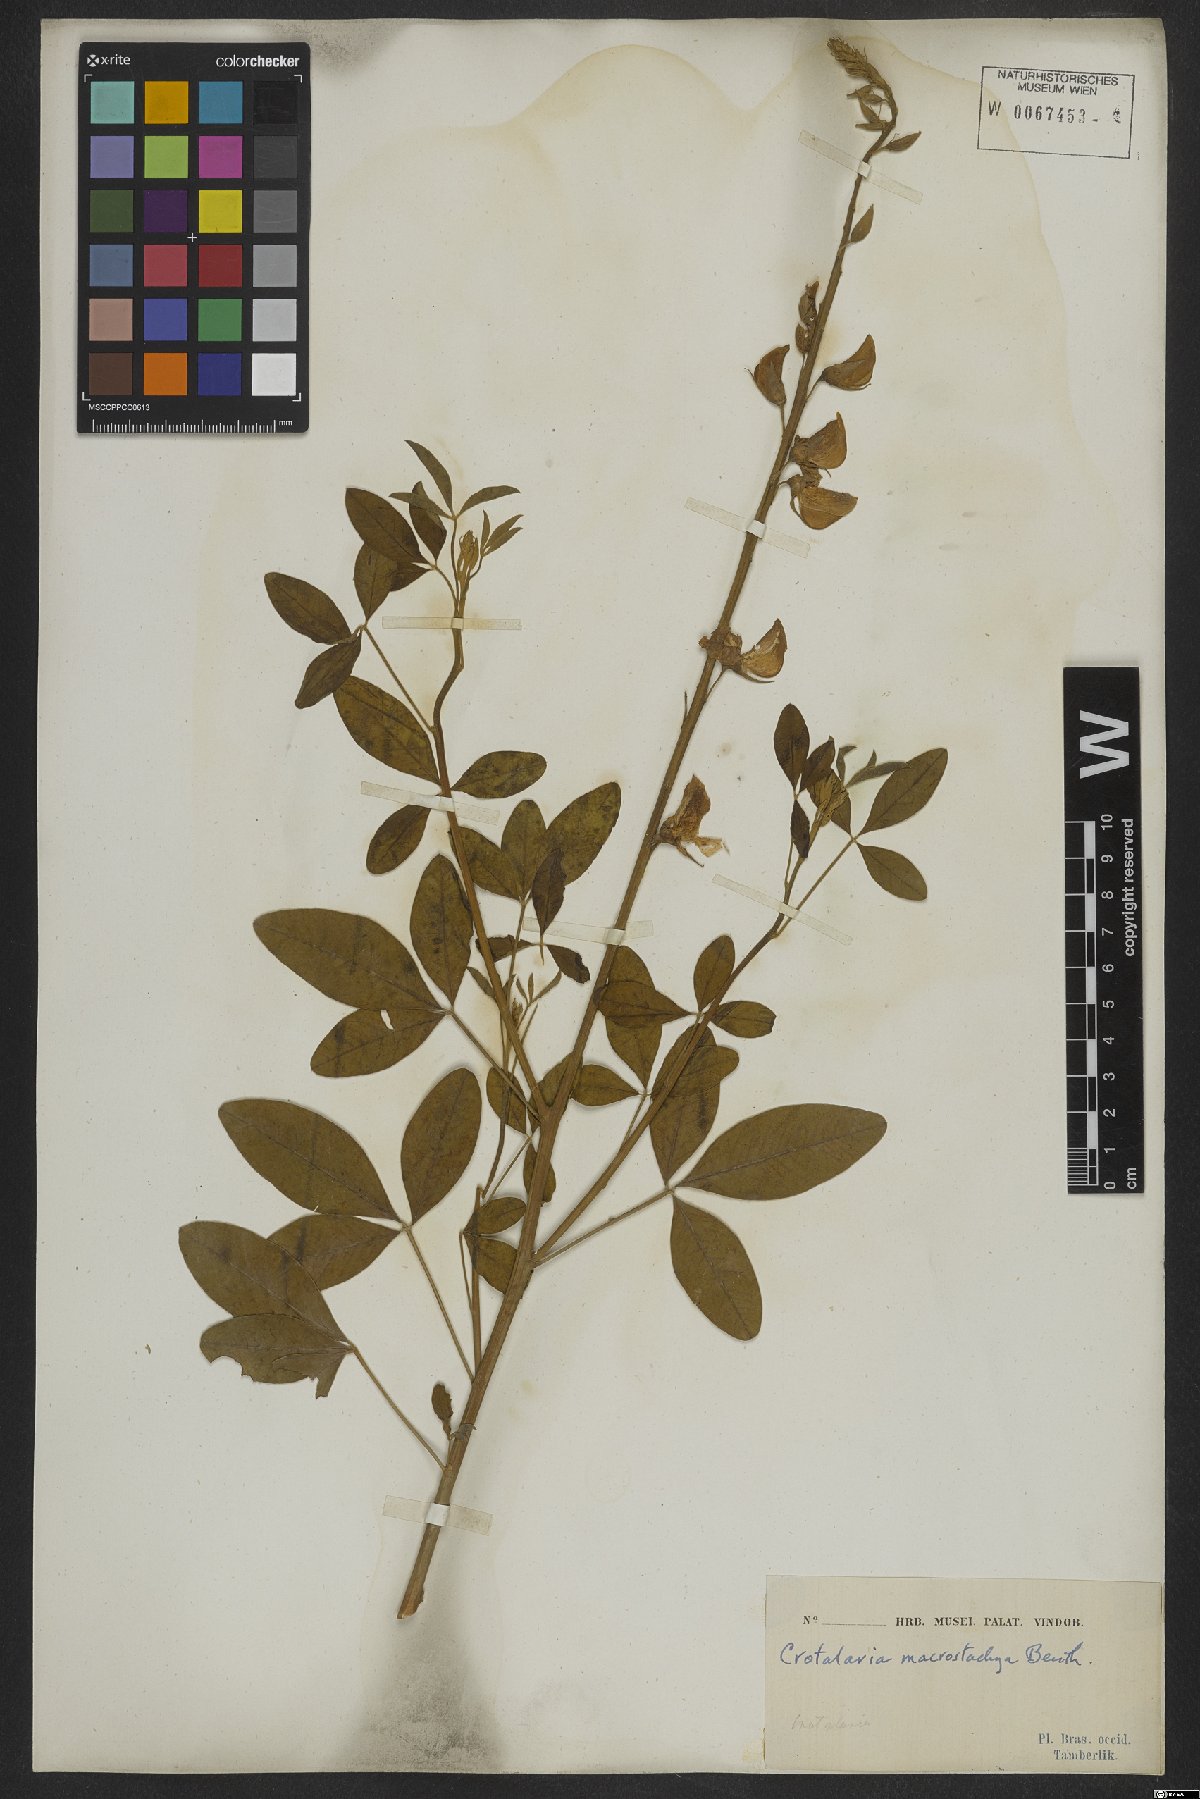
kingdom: Plantae
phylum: Tracheophyta
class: Magnoliopsida
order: Fabales
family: Fabaceae
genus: Crotalaria
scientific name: Crotalaria globifera
